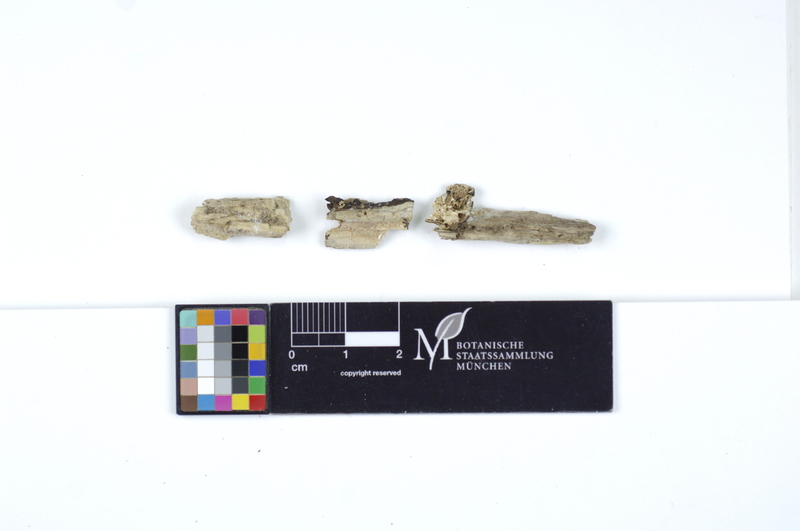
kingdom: Fungi
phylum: Basidiomycota
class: Agaricomycetes
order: Polyporales
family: Irpicaceae
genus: Ceriporia
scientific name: Ceriporia reticulata
